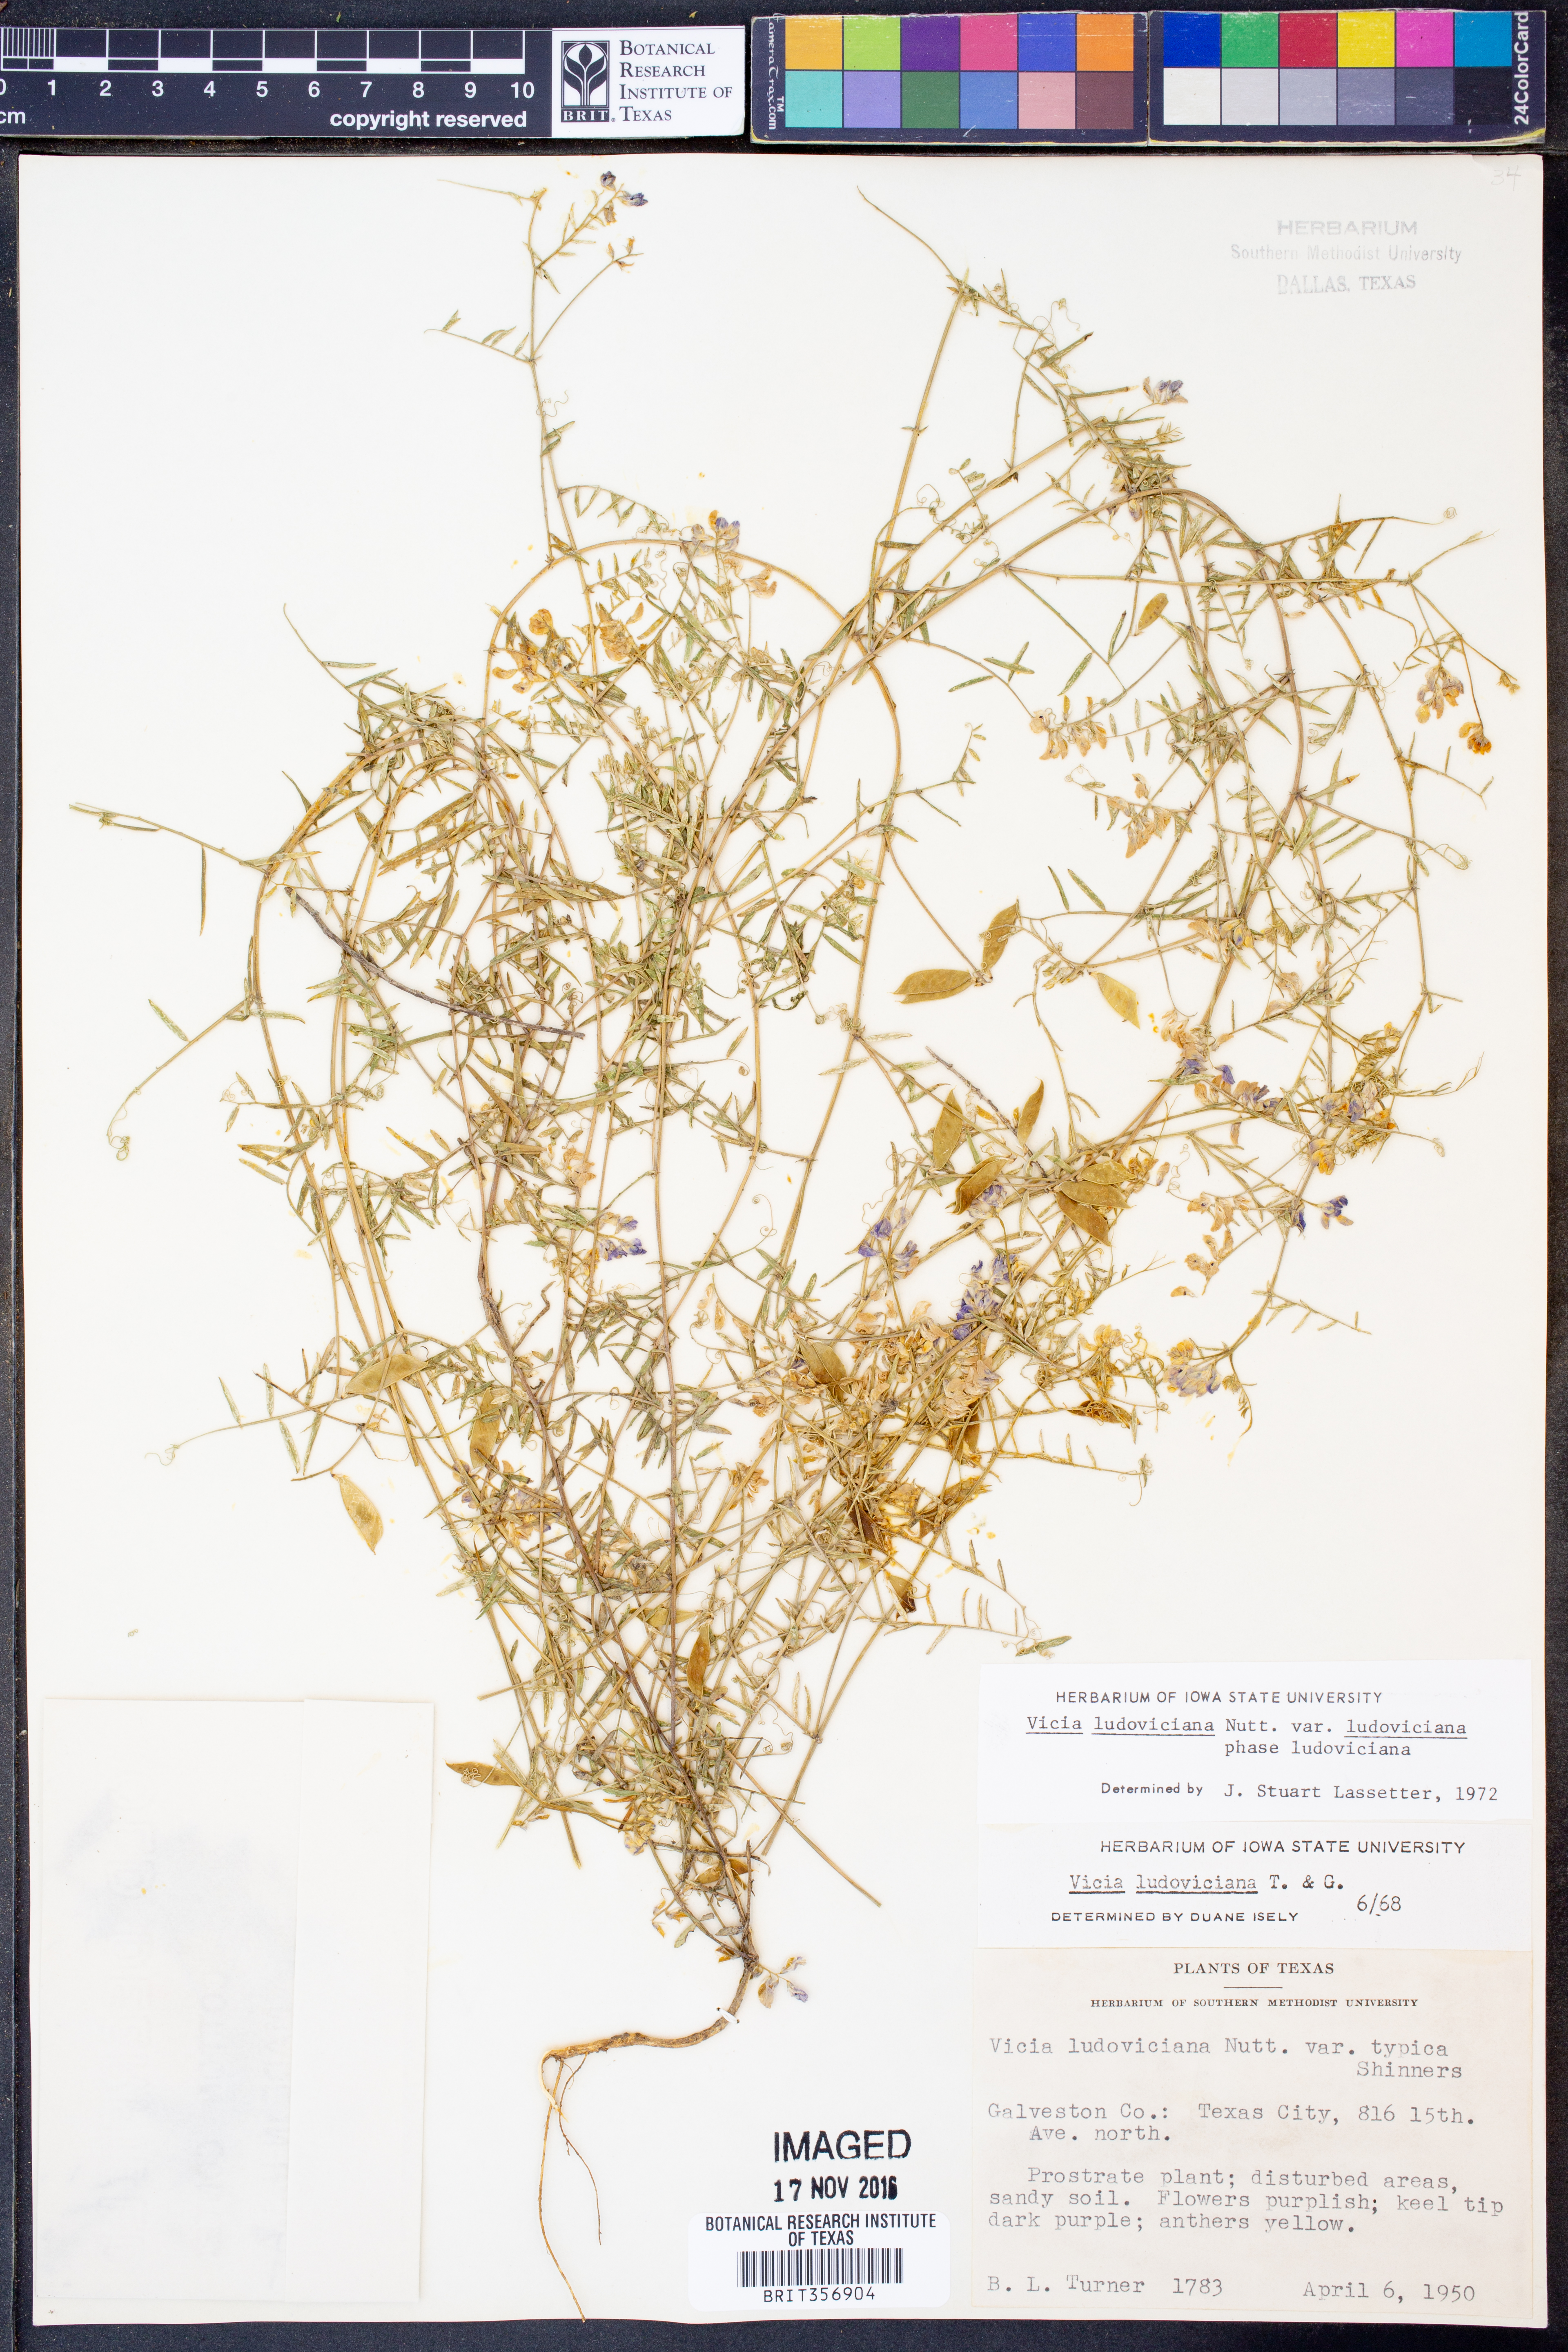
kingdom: Plantae
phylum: Tracheophyta
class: Magnoliopsida
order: Fabales
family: Fabaceae
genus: Vicia
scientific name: Vicia ludoviciana
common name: Louisiana vetch
